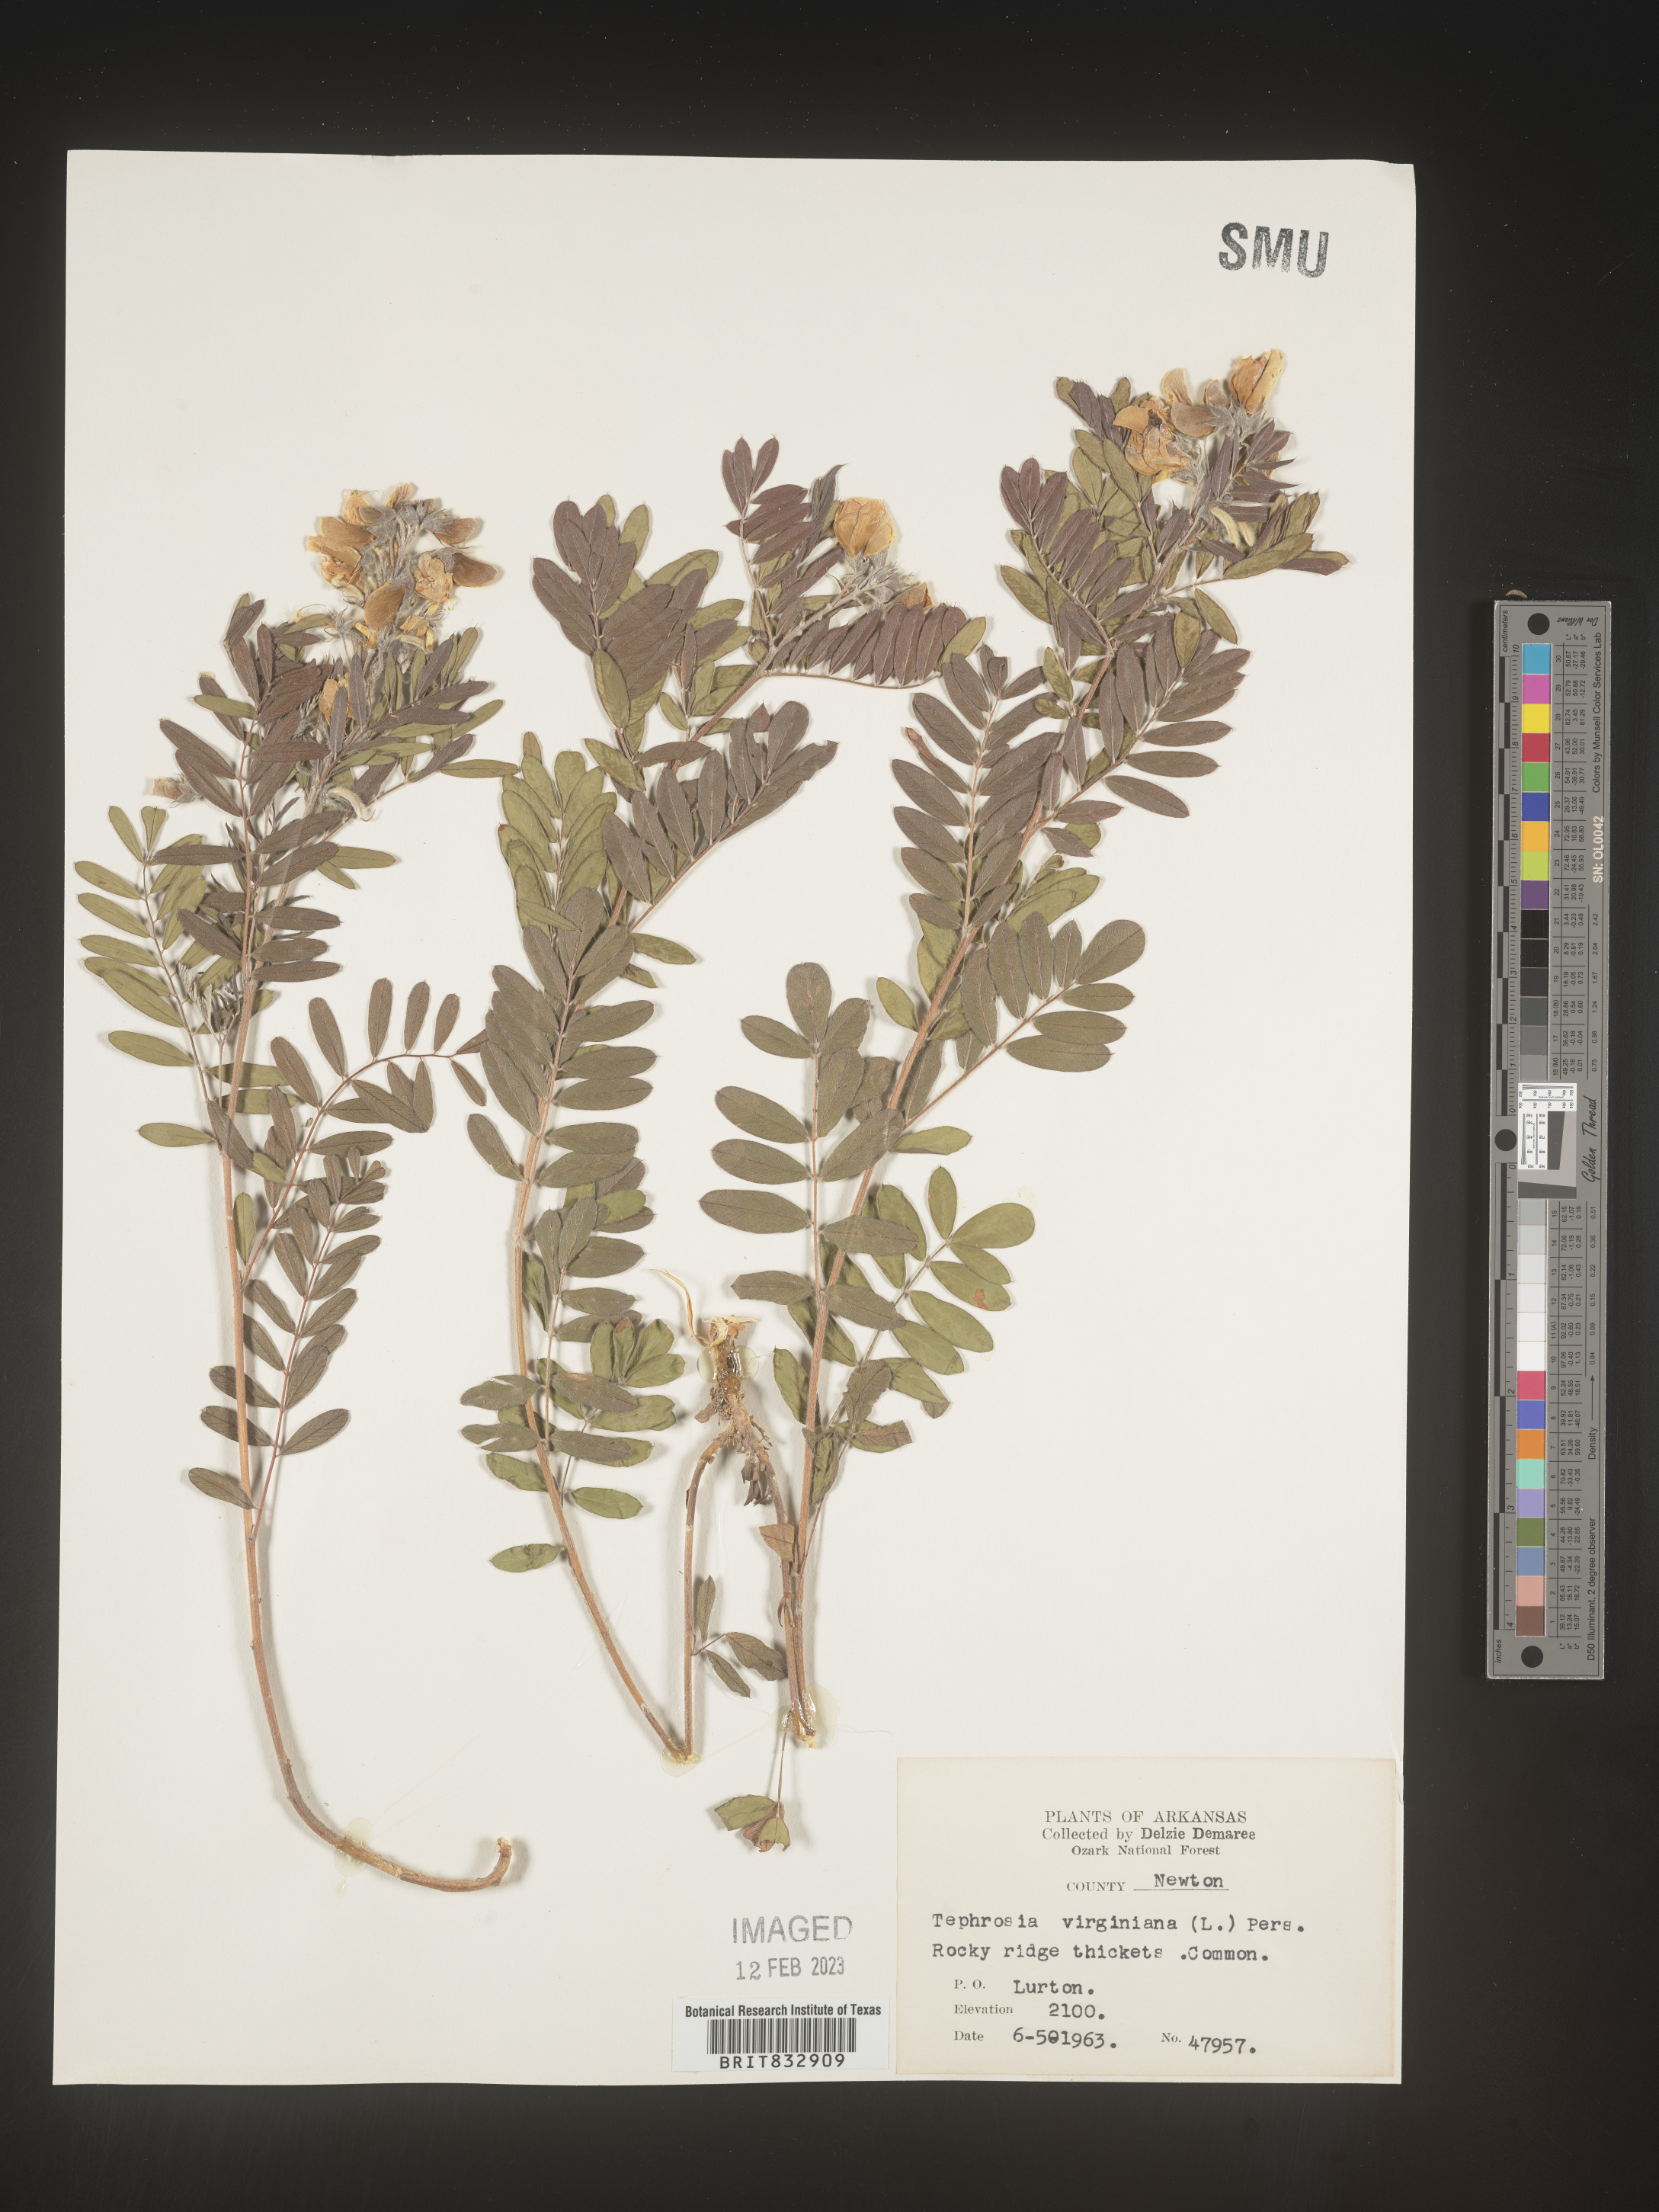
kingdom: Plantae
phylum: Tracheophyta
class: Magnoliopsida
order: Fabales
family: Fabaceae
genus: Tephrosia
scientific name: Tephrosia virginiana
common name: Rabbit-pea
